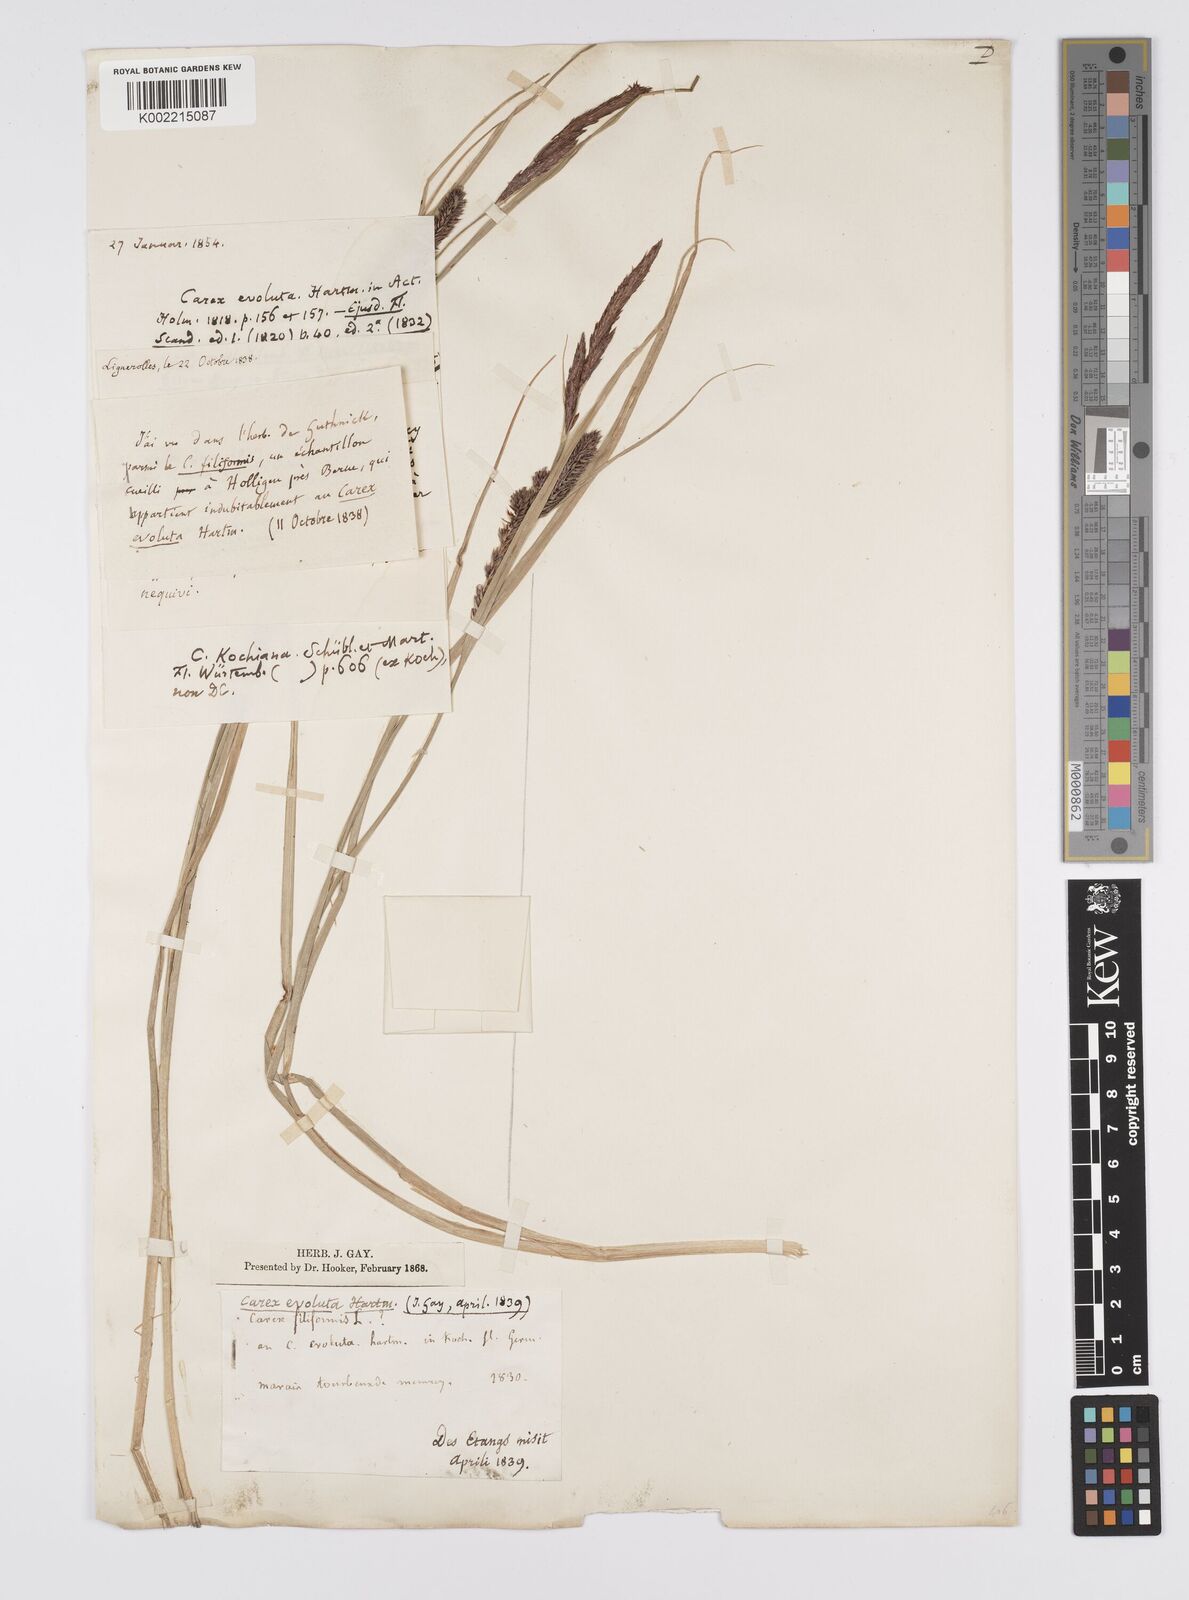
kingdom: Plantae
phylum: Tracheophyta
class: Liliopsida
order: Poales
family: Cyperaceae
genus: Carex
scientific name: Carex evoluta
